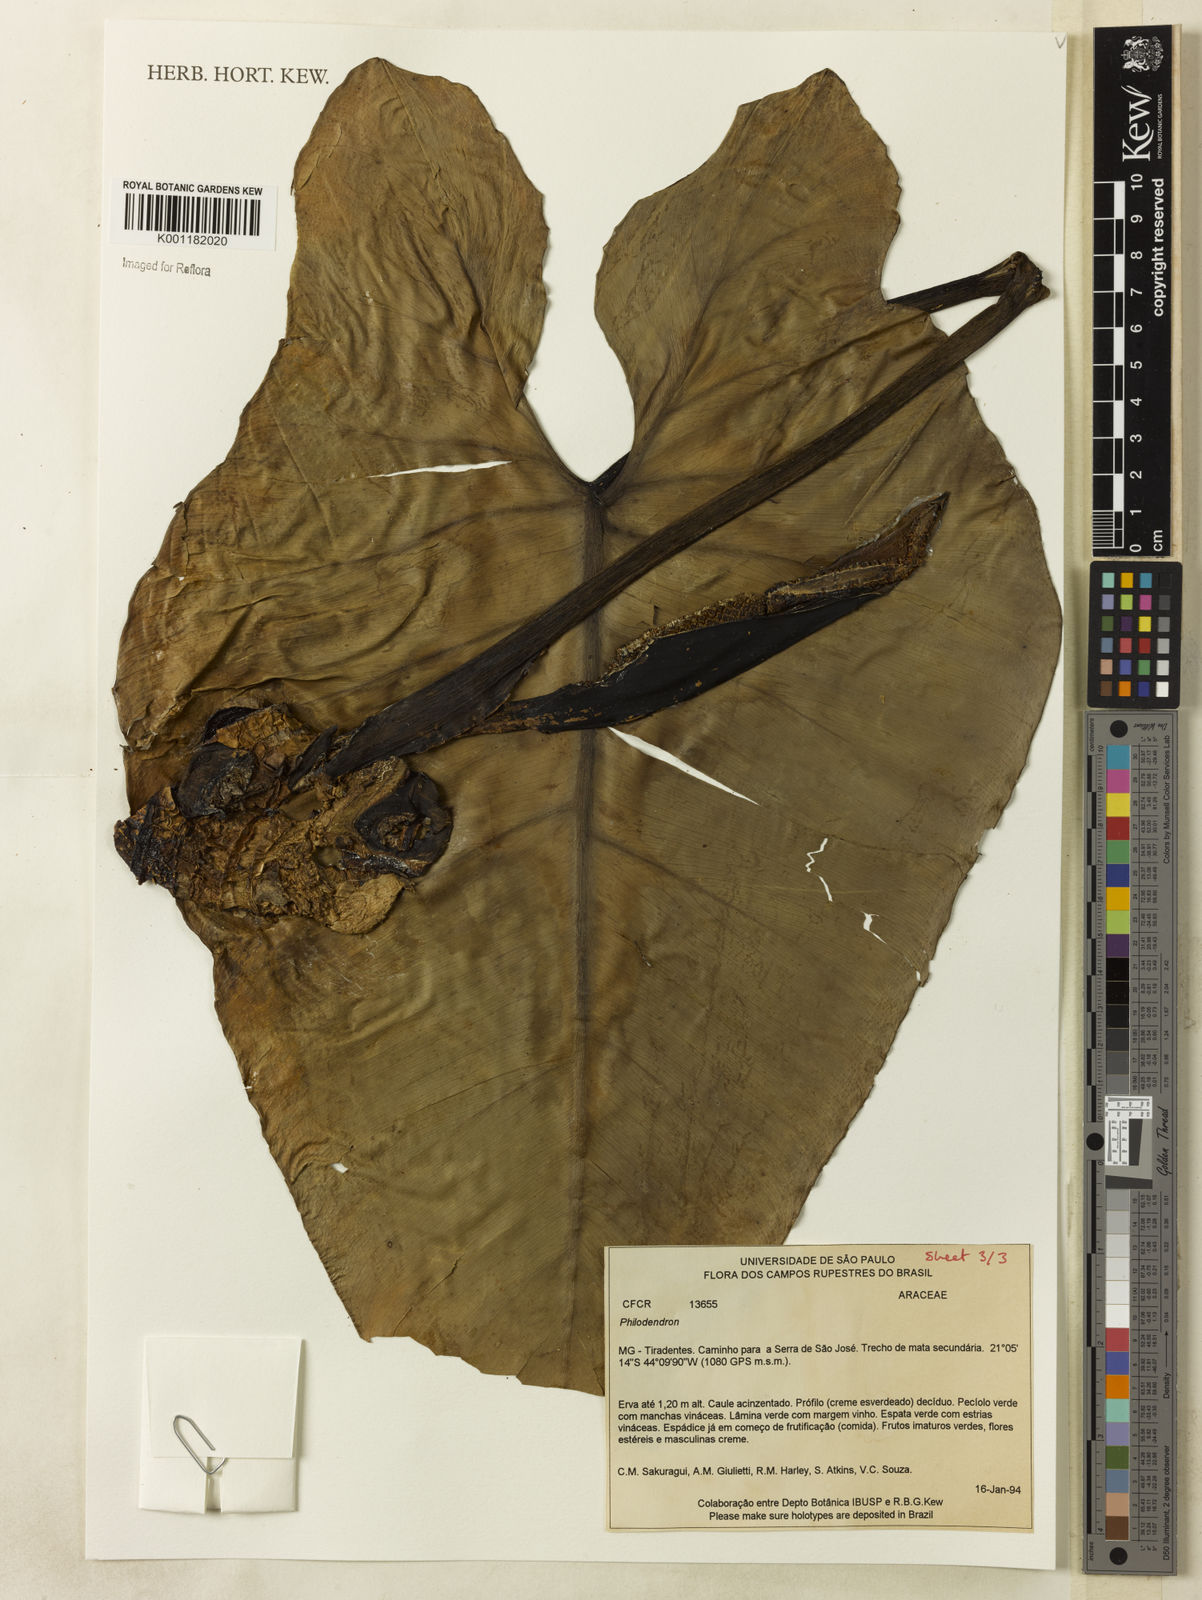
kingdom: Plantae
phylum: Tracheophyta
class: Liliopsida
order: Alismatales
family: Araceae
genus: Philodendron
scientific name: Philodendron
